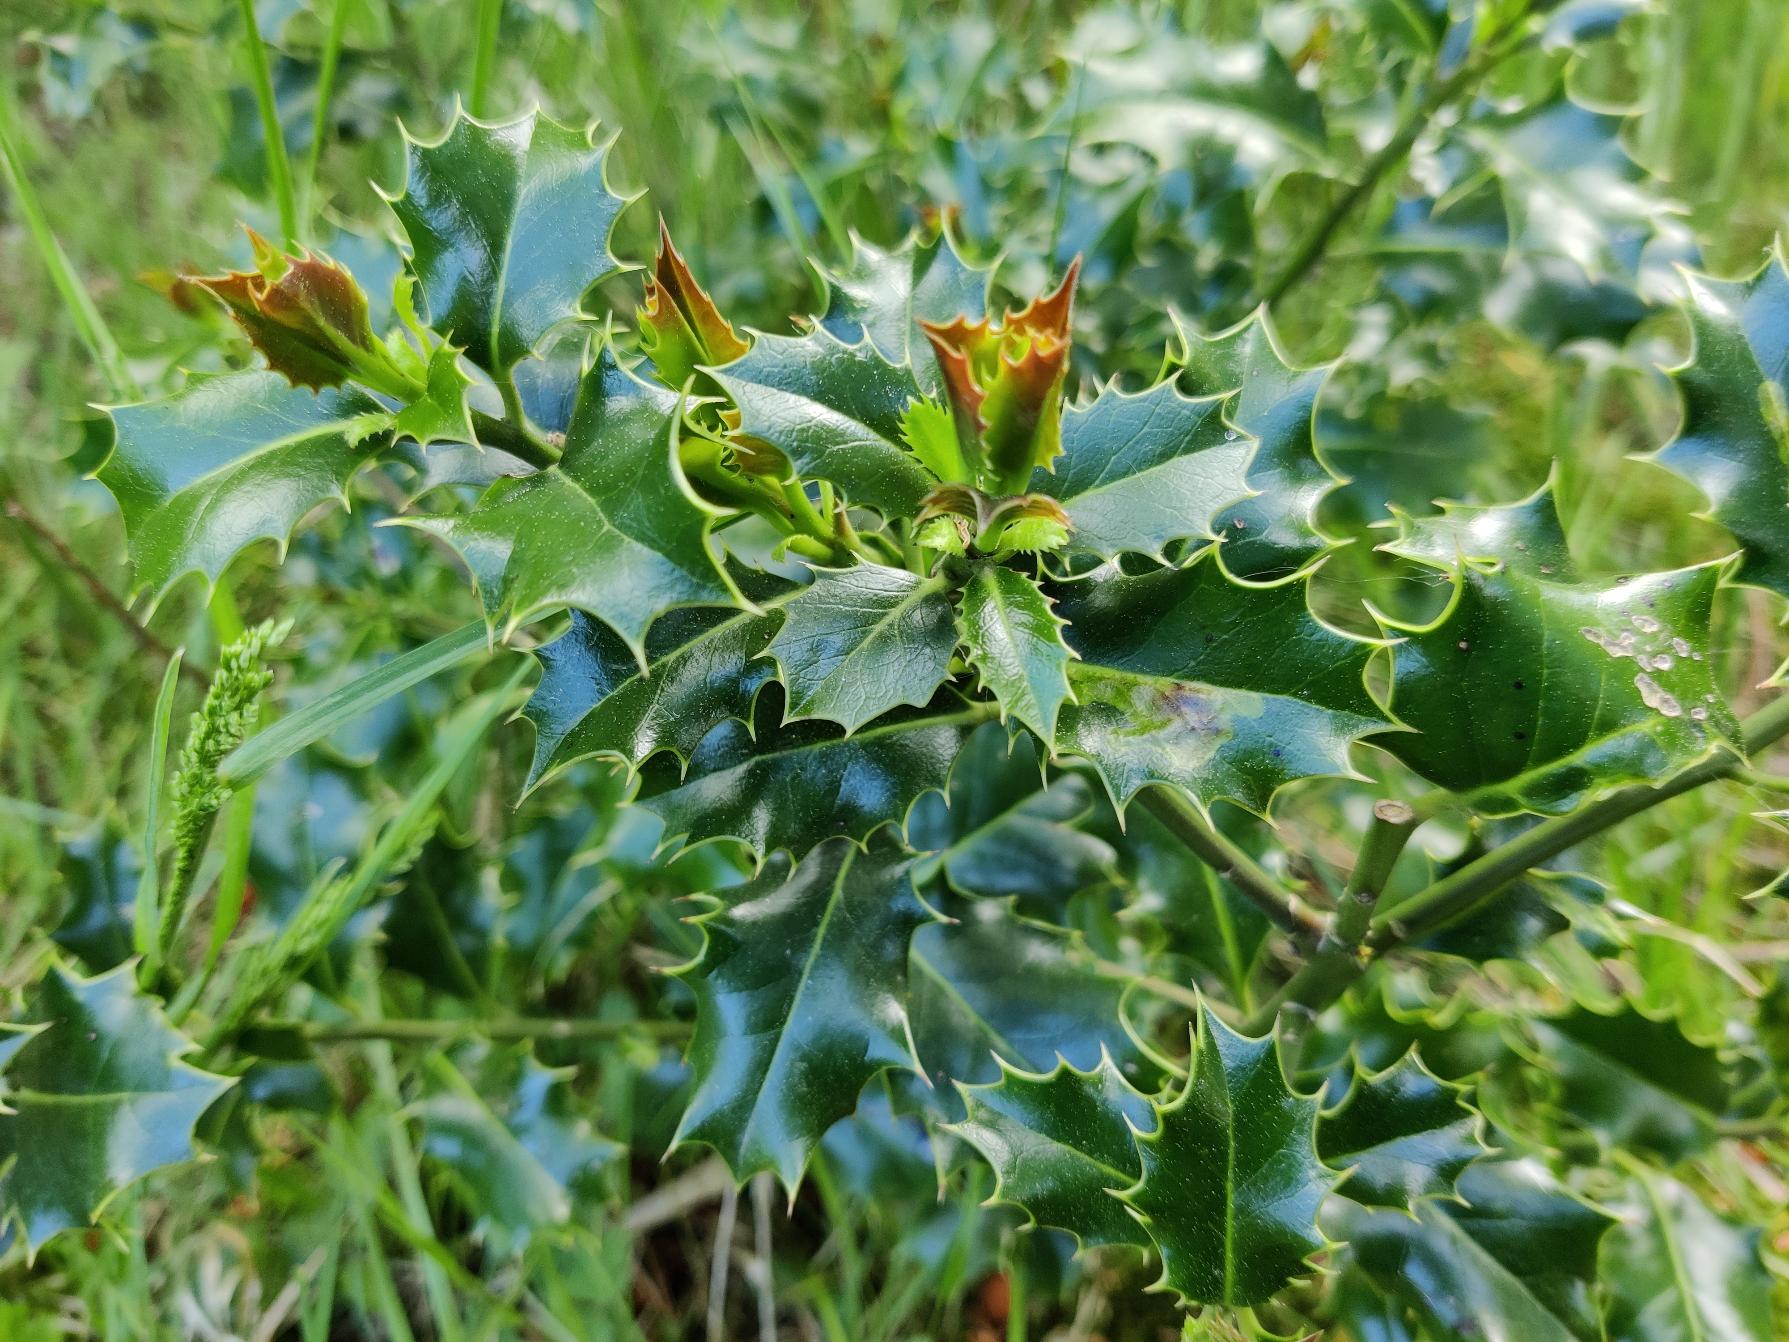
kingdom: Plantae
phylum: Tracheophyta
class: Magnoliopsida
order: Aquifoliales
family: Aquifoliaceae
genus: Ilex
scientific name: Ilex aquifolium
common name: Kristtorn
